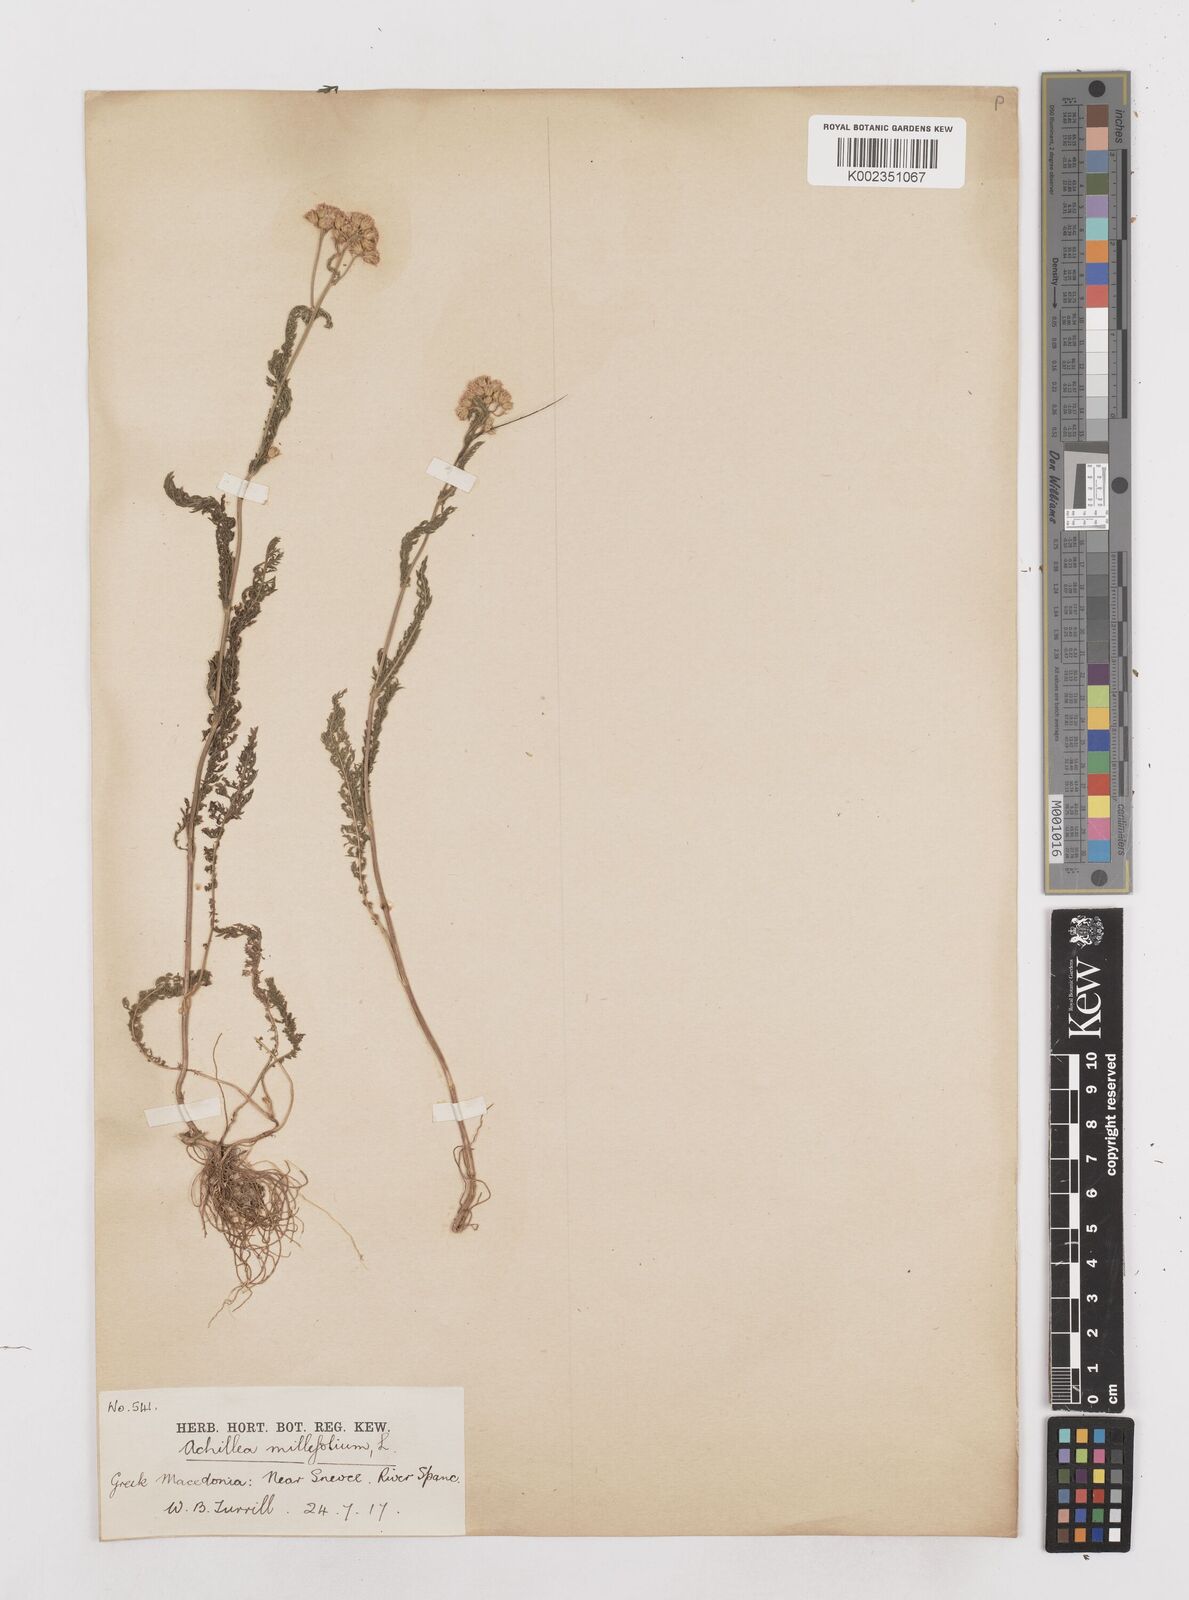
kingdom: Plantae
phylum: Tracheophyta
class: Magnoliopsida
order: Asterales
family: Asteraceae
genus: Achillea
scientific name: Achillea millefolium
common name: Yarrow
